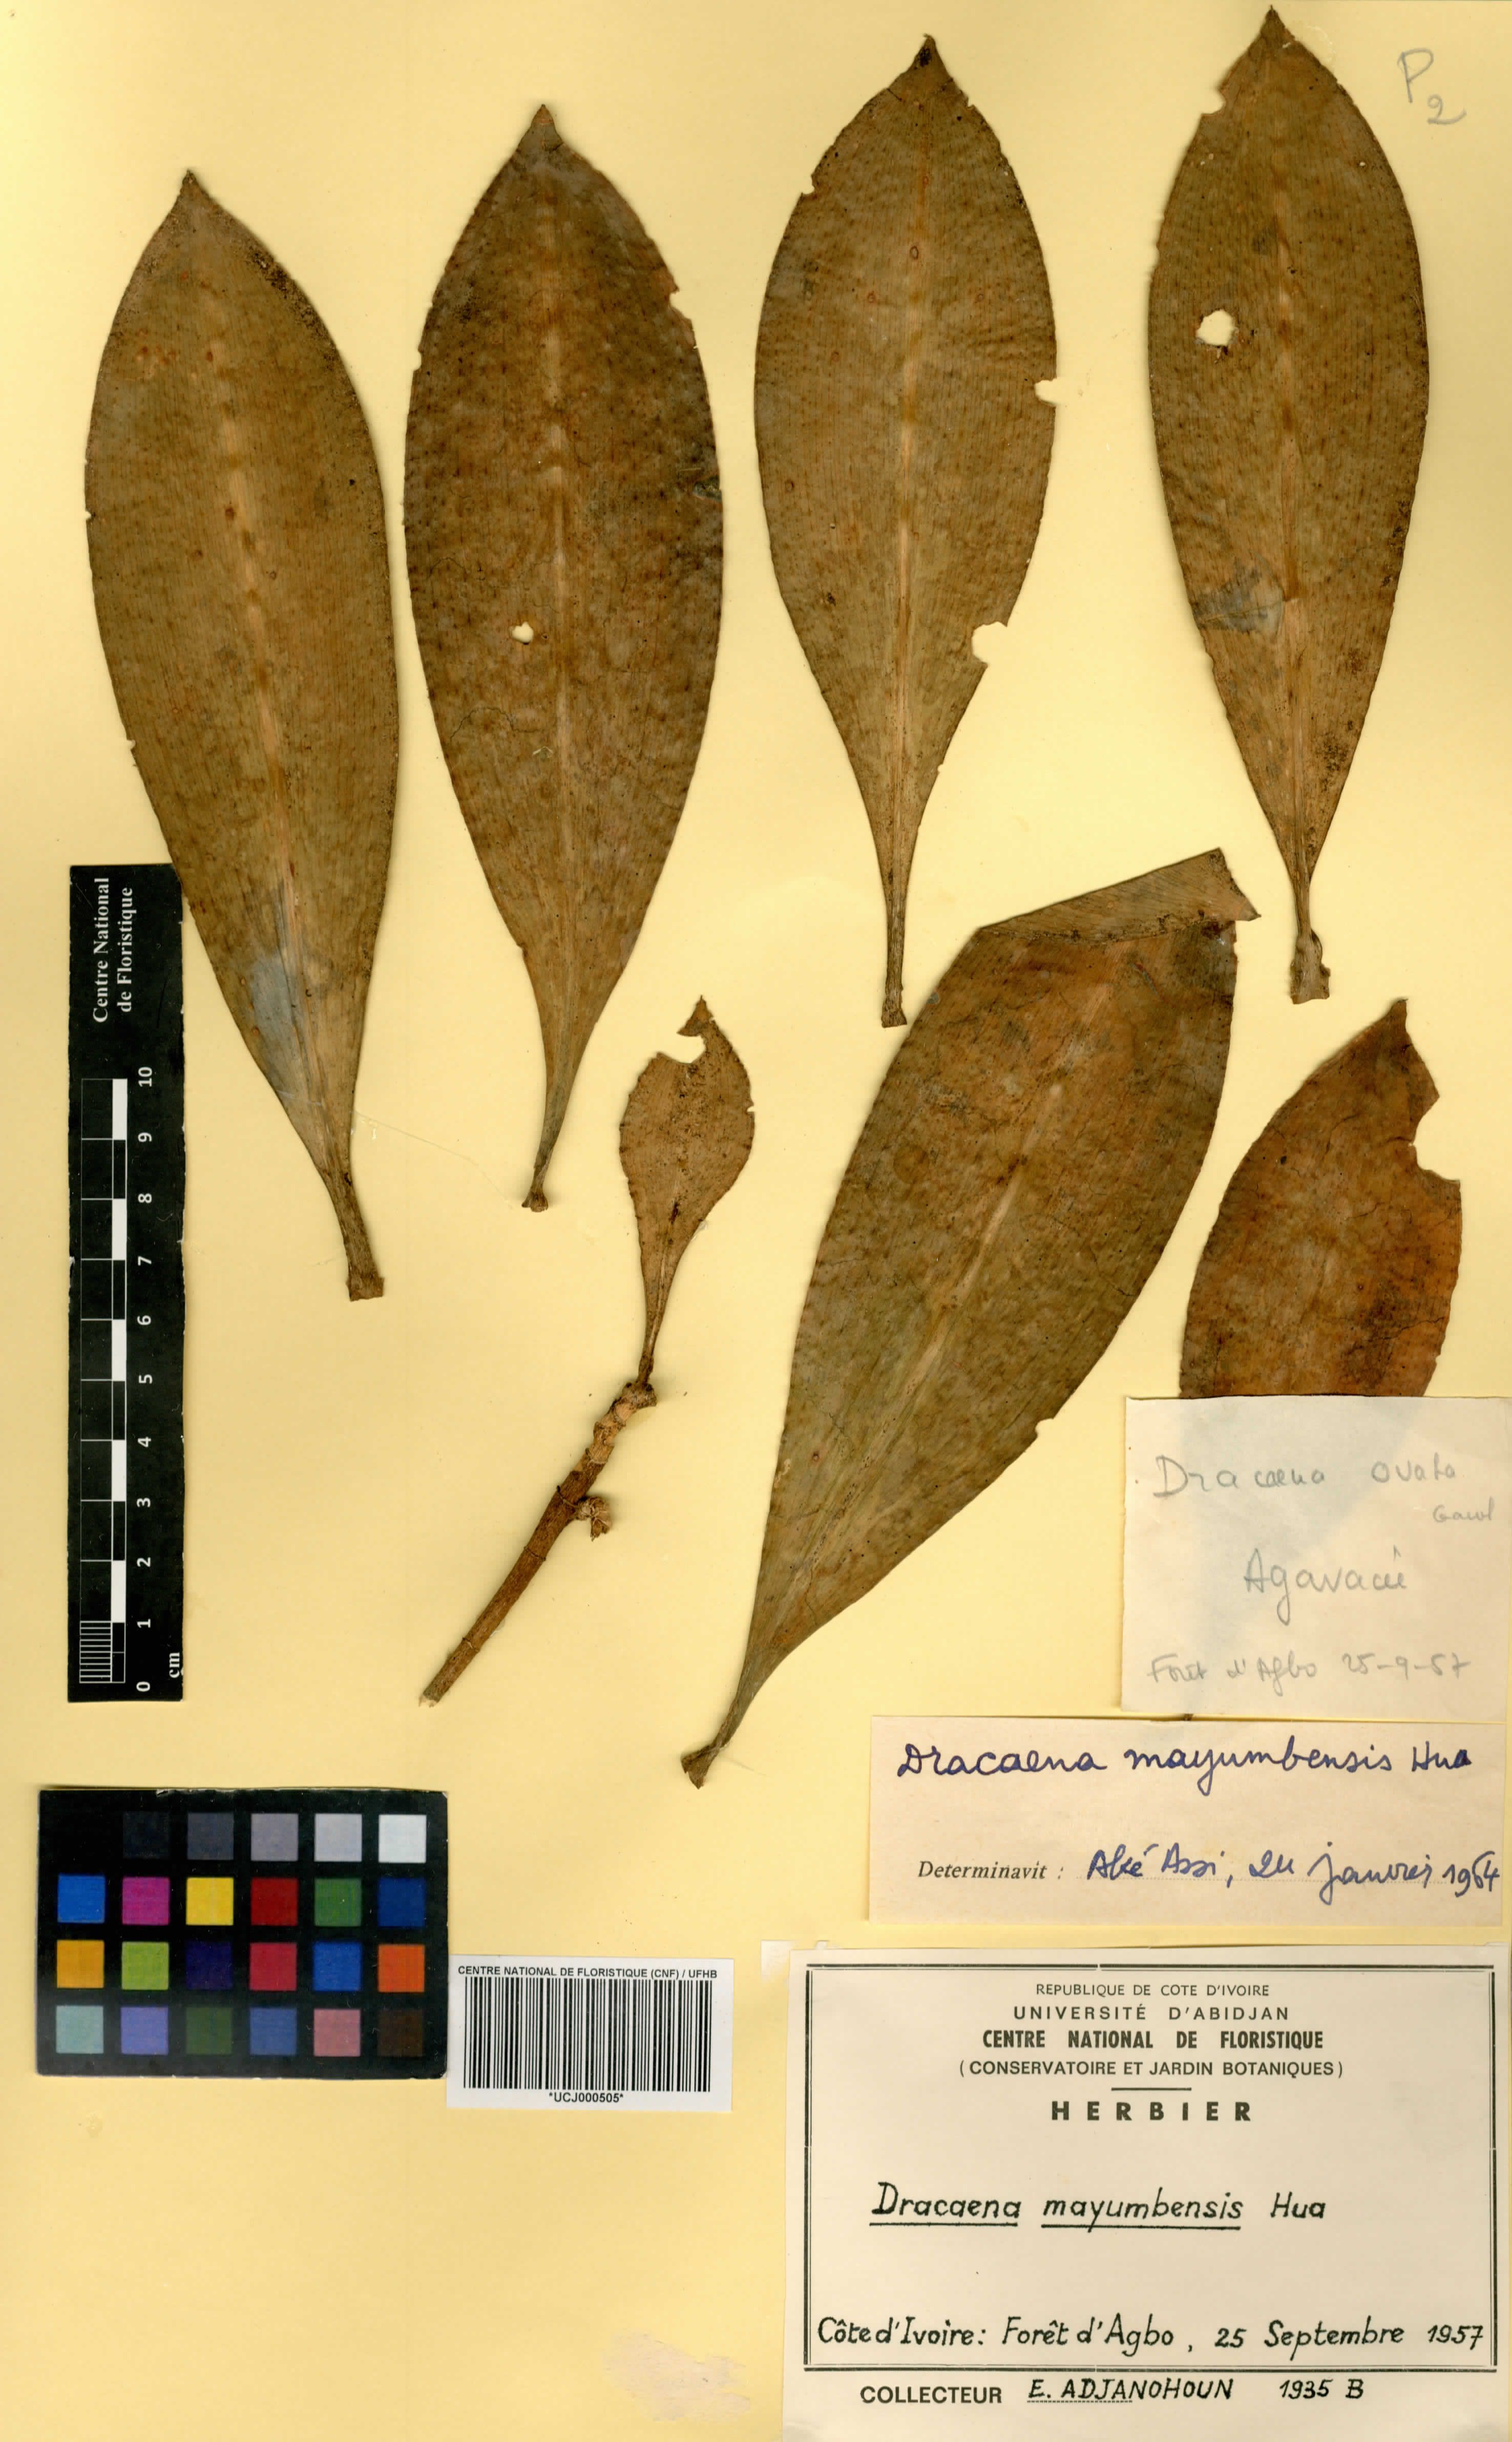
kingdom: Plantae
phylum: Tracheophyta
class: Liliopsida
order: Asparagales
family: Asparagaceae
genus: Dracaena
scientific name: Dracaena camerooniana
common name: Dragon tree
